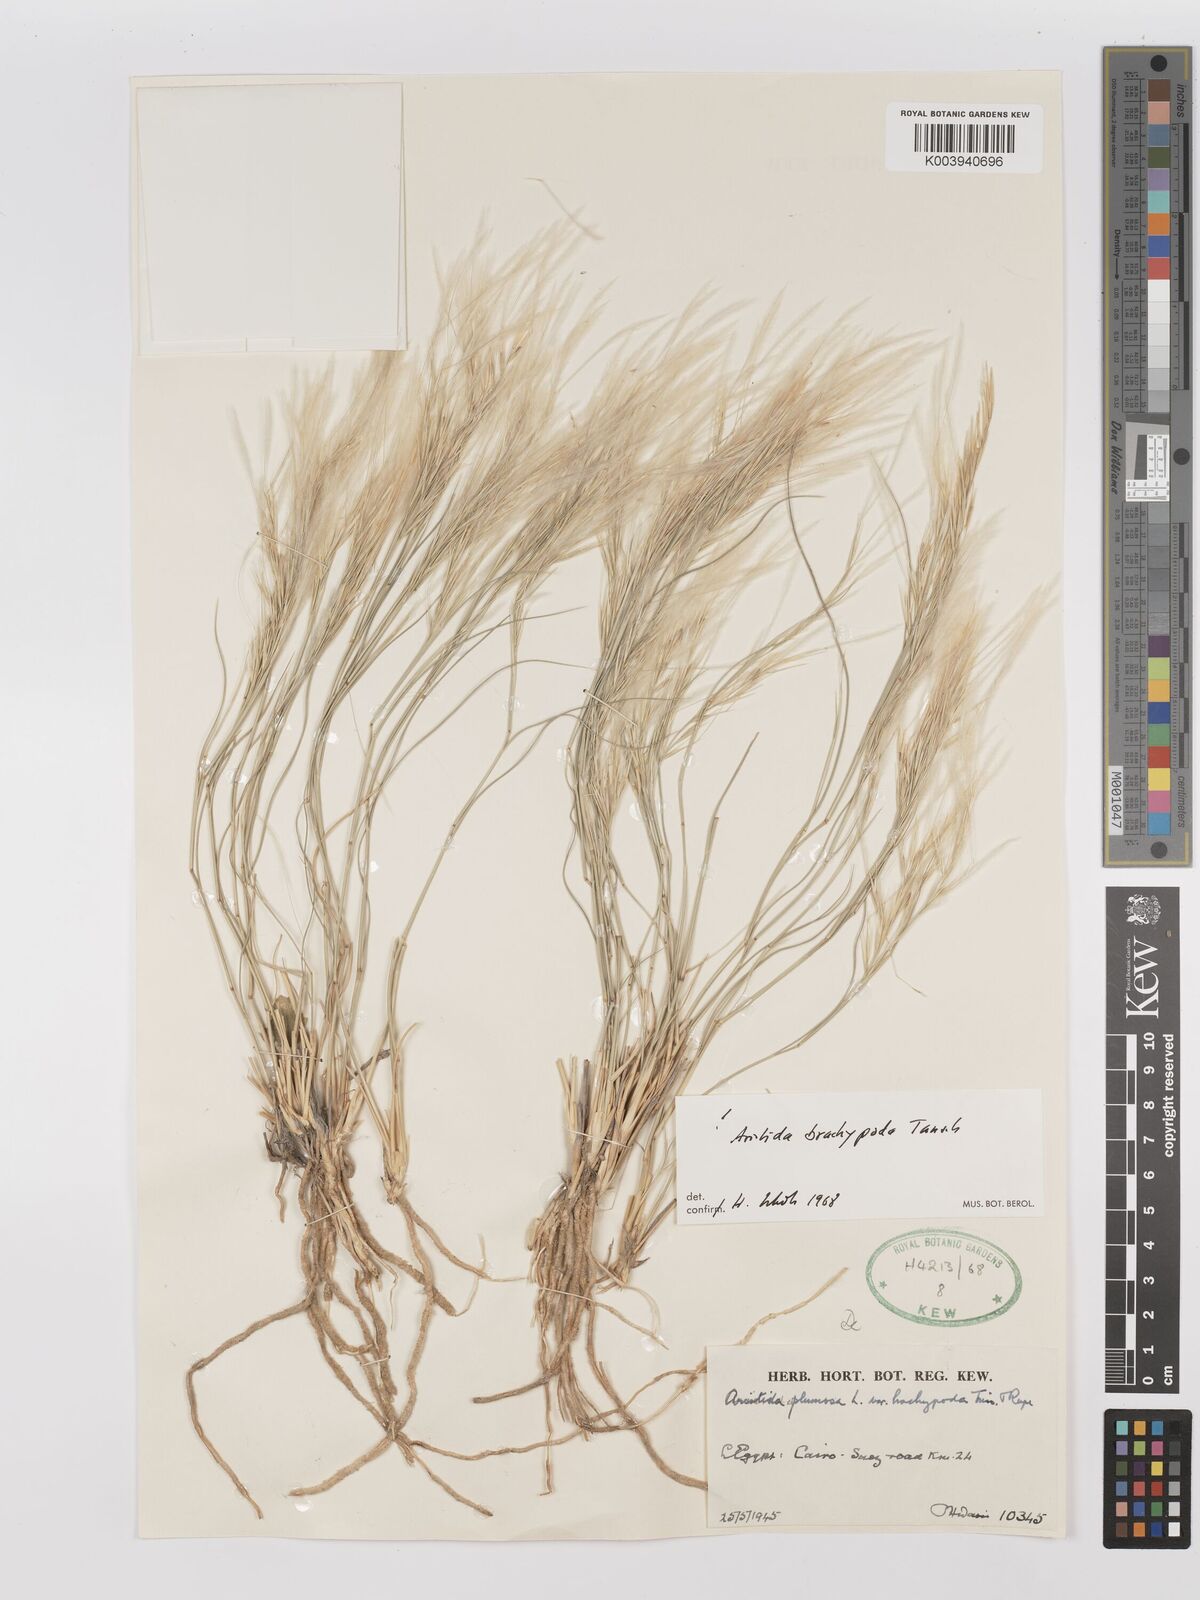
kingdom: Plantae
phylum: Tracheophyta
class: Liliopsida
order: Poales
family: Poaceae
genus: Stipagrostis
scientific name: Stipagrostis plumosa
